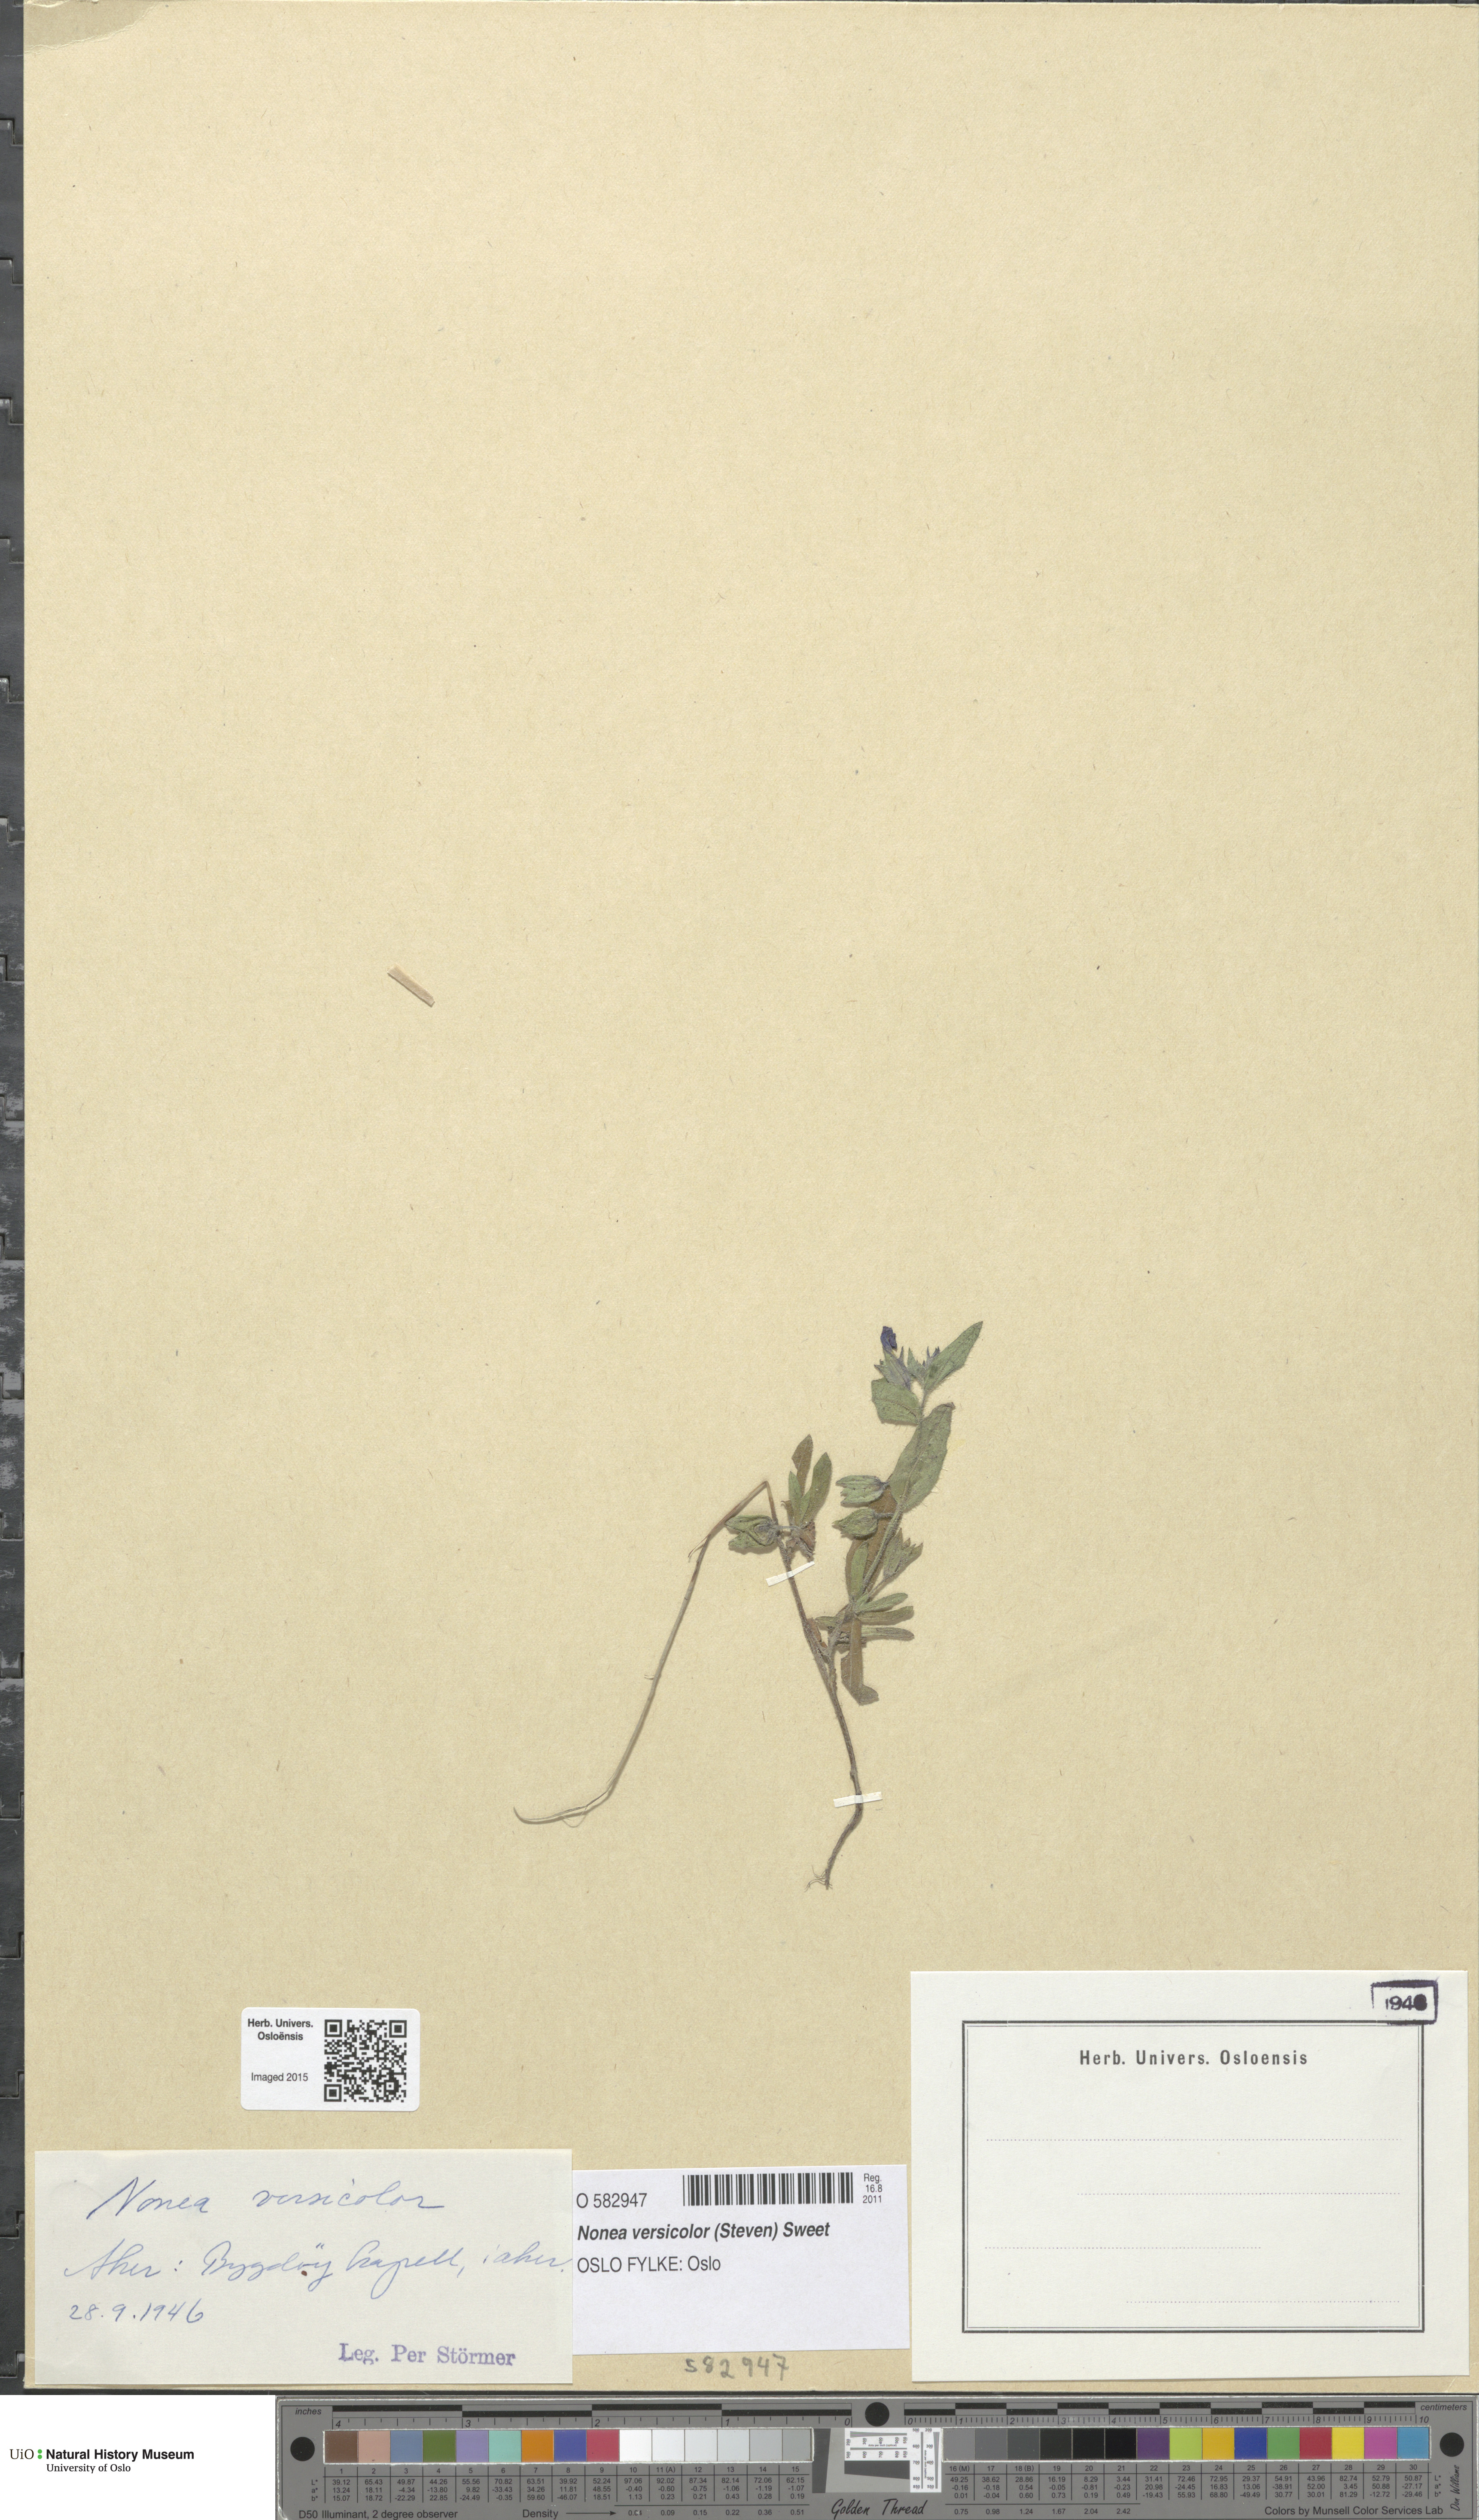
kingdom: Plantae
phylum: Tracheophyta
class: Magnoliopsida
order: Boraginales
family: Boraginaceae
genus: Nonea
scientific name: Nonea versicolor
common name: Varied monkswort
